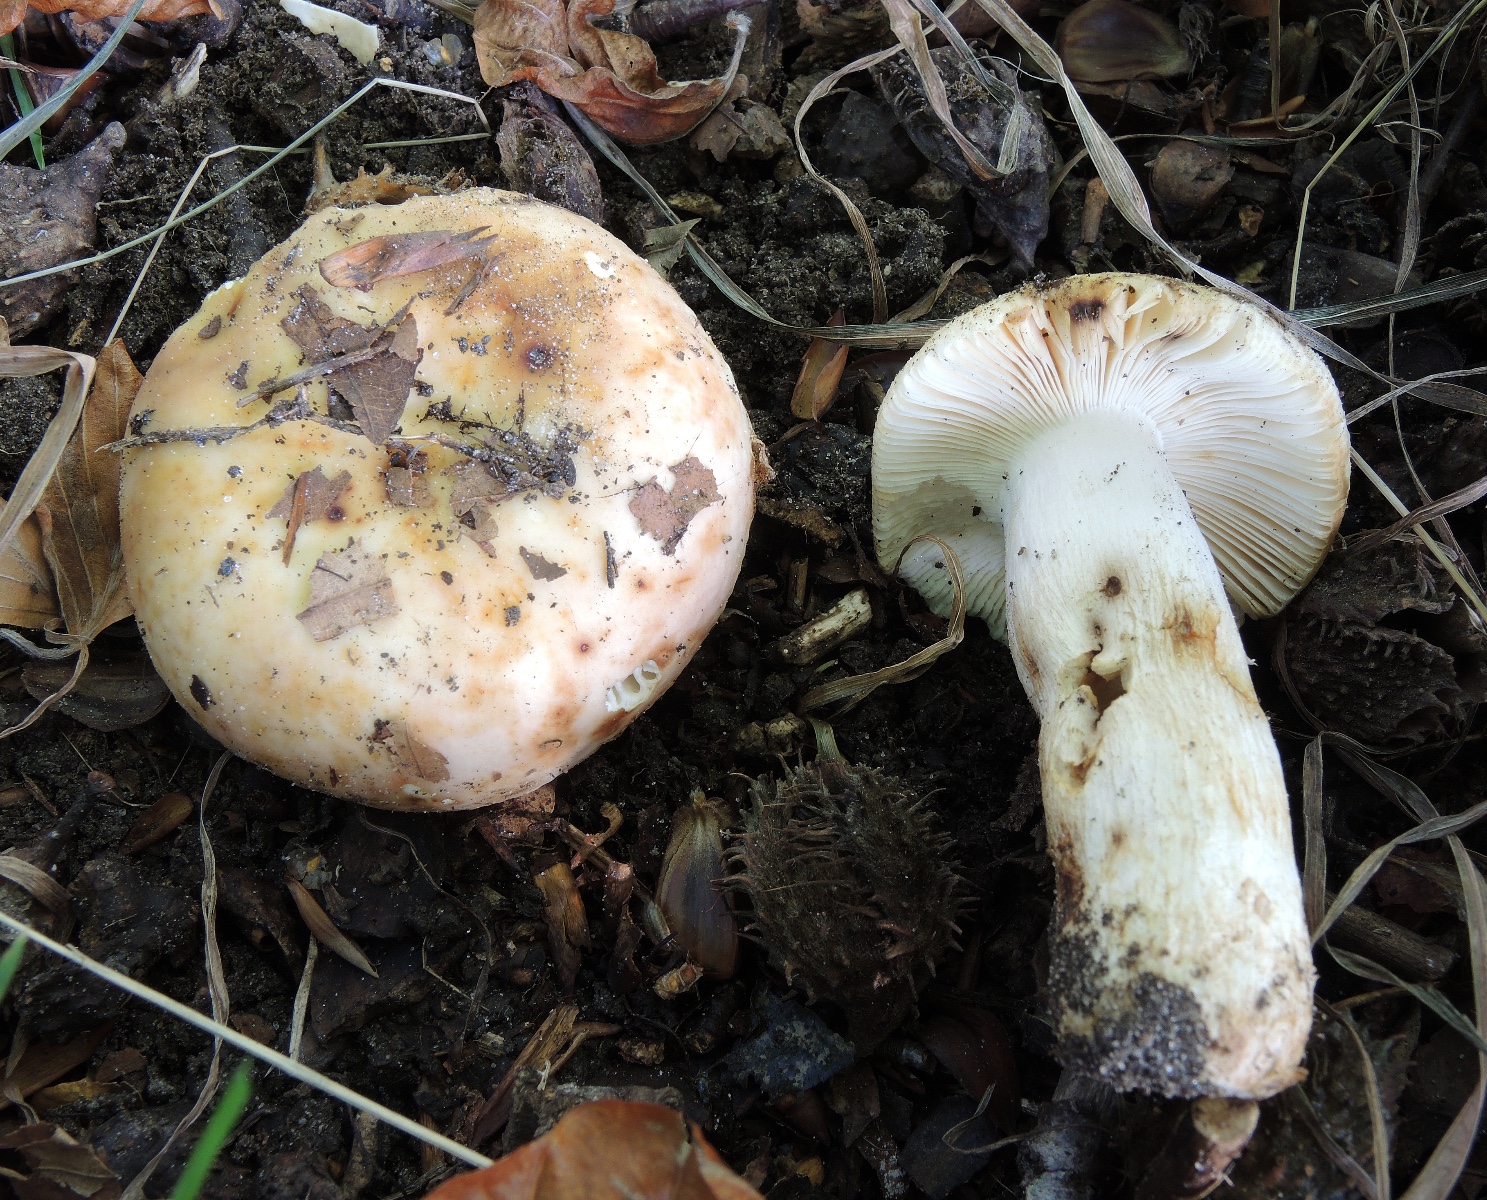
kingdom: Fungi
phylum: Basidiomycota
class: Agaricomycetes
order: Russulales
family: Russulaceae
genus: Russula
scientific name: Russula maculata
